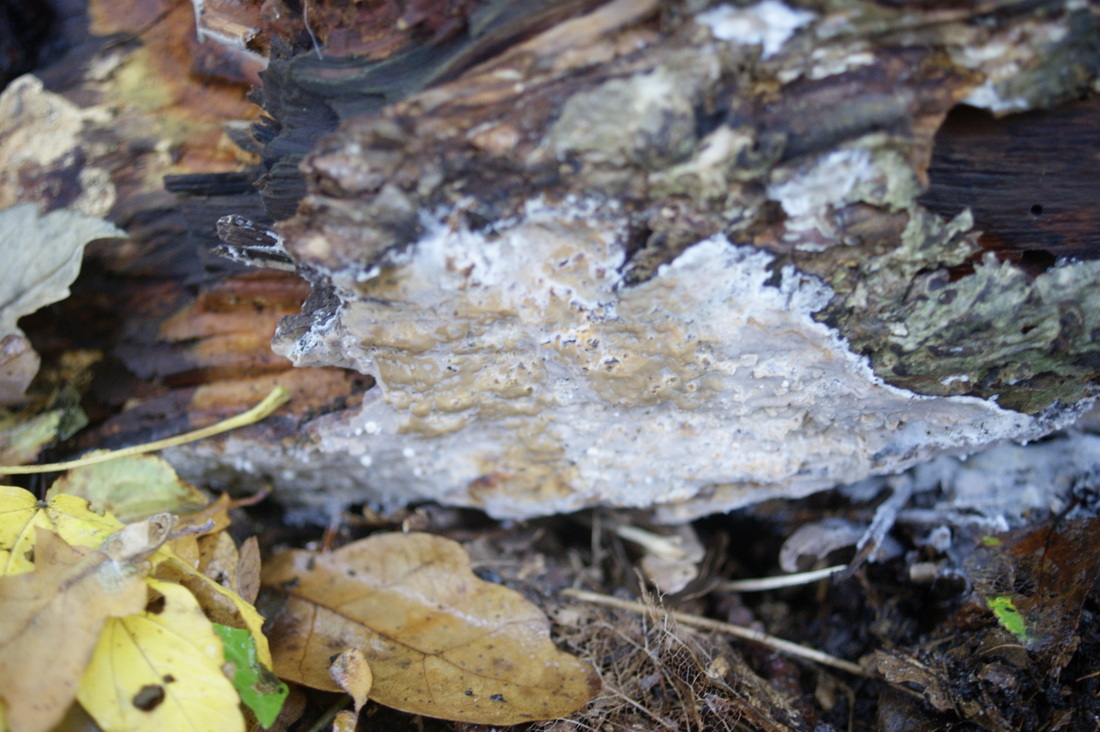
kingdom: Fungi
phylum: Basidiomycota
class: Agaricomycetes
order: Agaricales
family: Radulomycetaceae
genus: Radulomyces
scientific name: Radulomyces confluens
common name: glat naftalinskind
